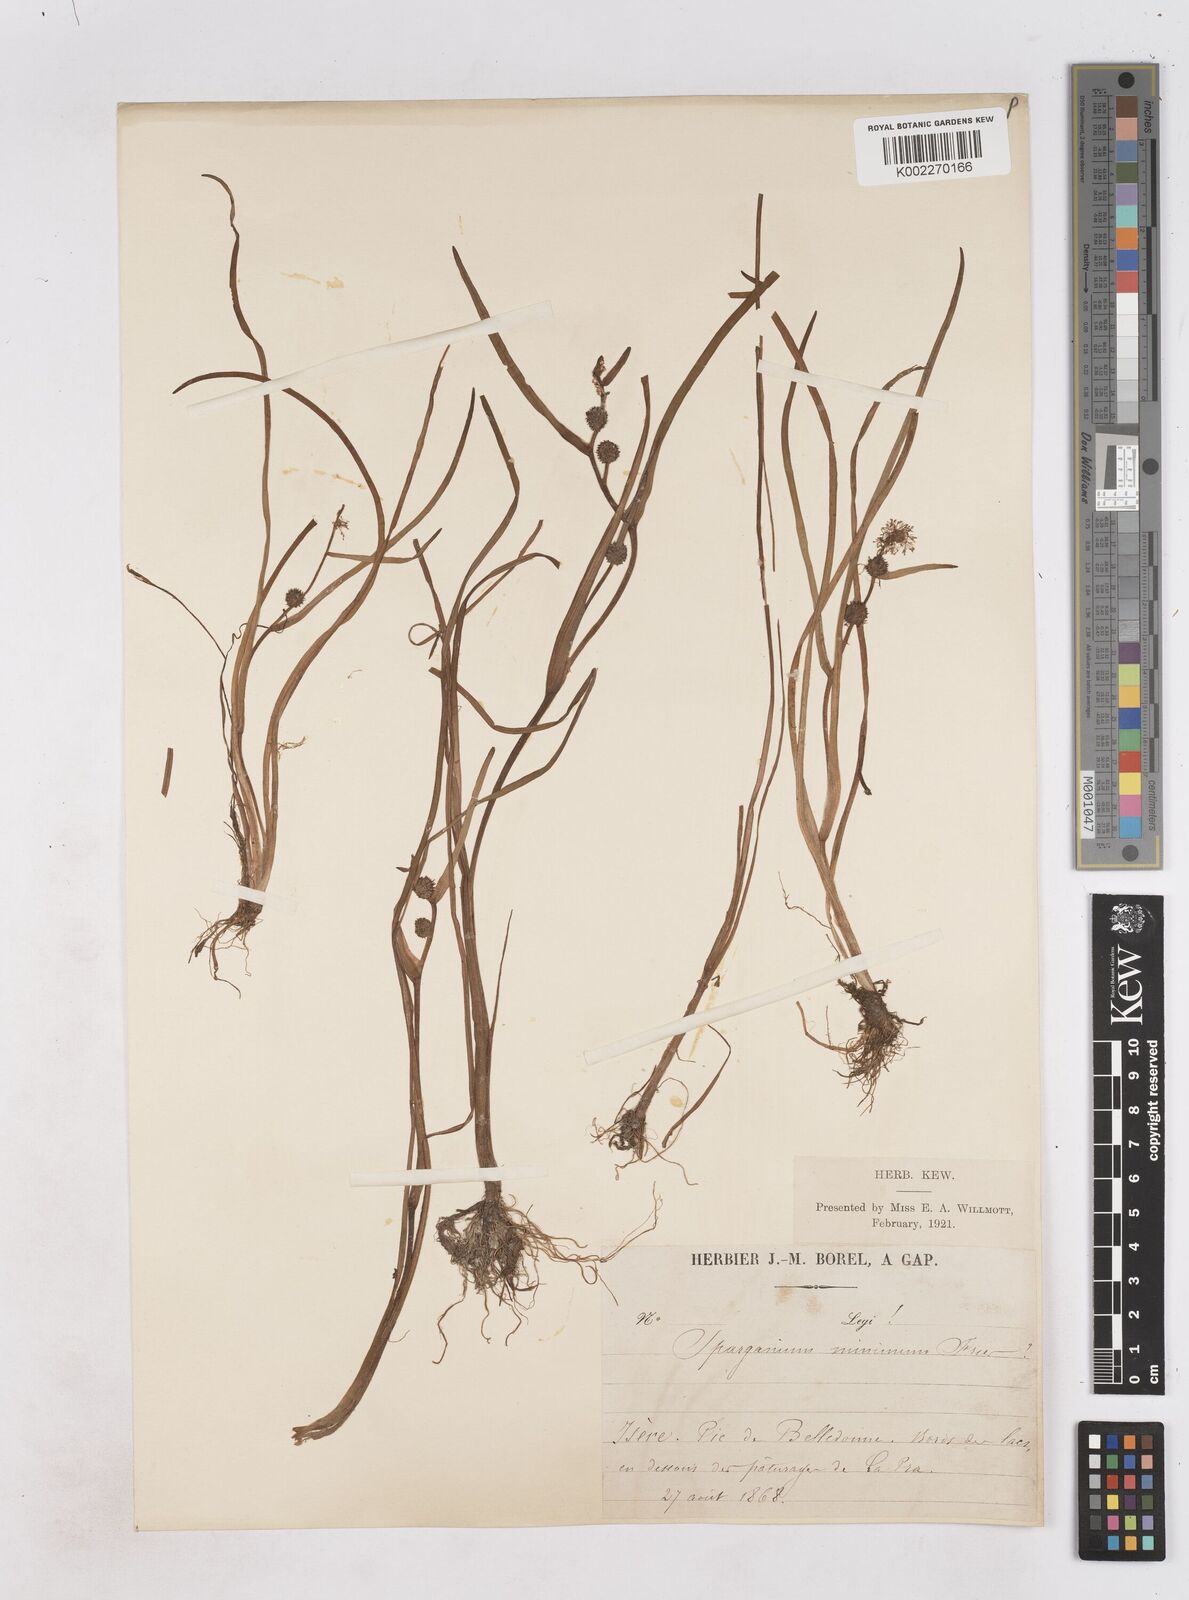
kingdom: Plantae
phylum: Tracheophyta
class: Liliopsida
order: Poales
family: Typhaceae
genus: Sparganium
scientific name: Sparganium natans
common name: Least bur-reed
